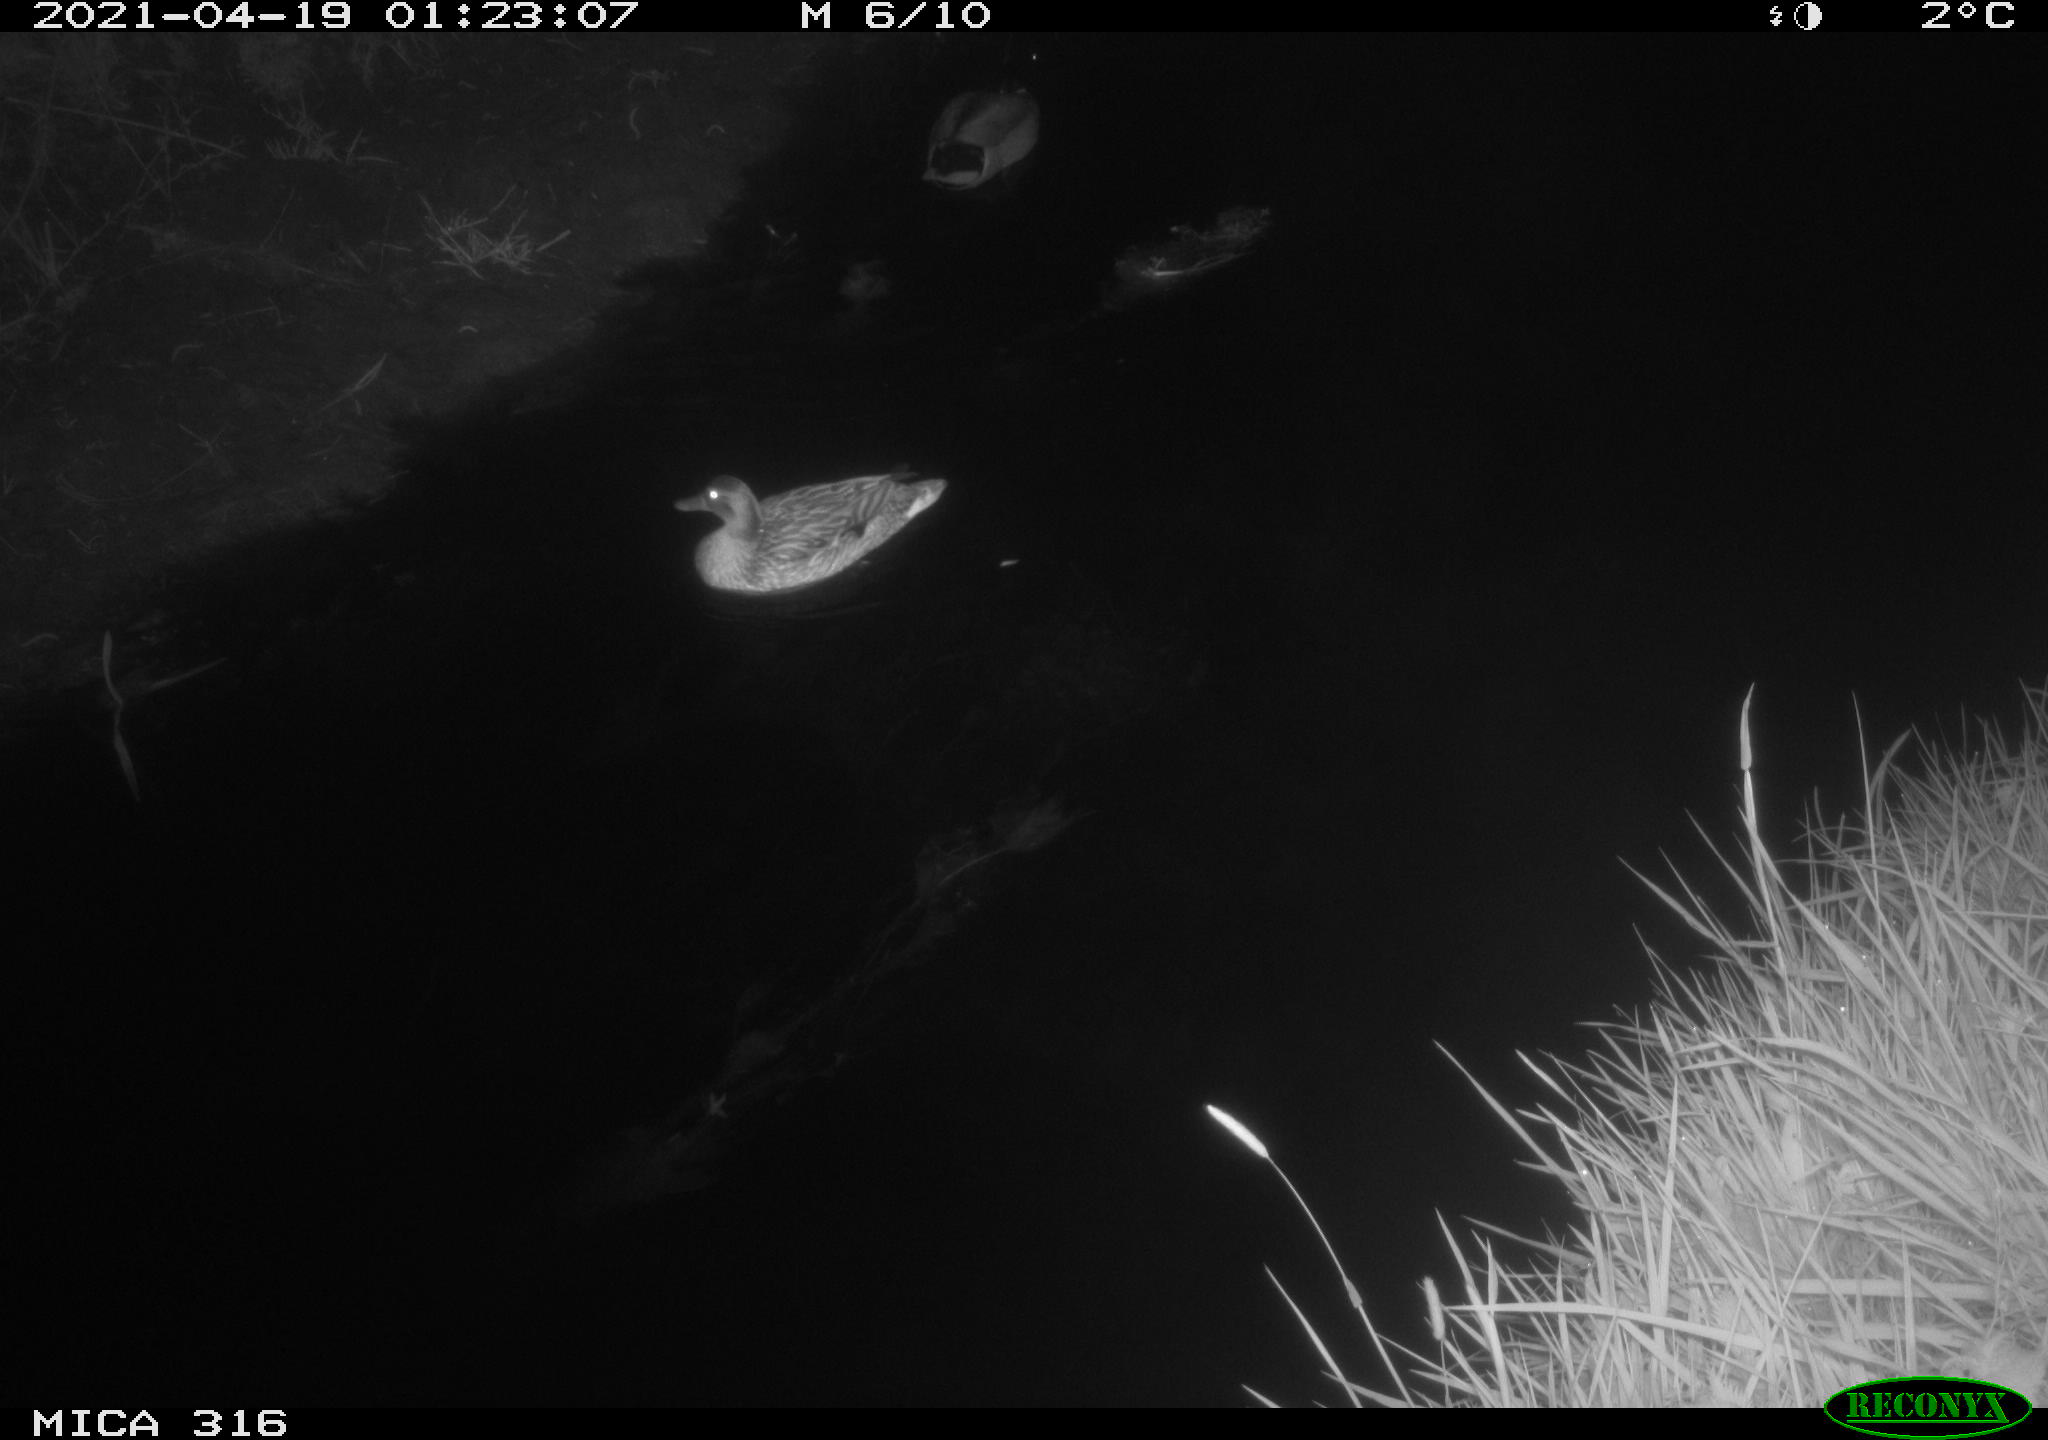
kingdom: Animalia
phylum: Chordata
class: Aves
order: Anseriformes
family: Anatidae
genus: Anas
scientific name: Anas platyrhynchos
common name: Mallard
